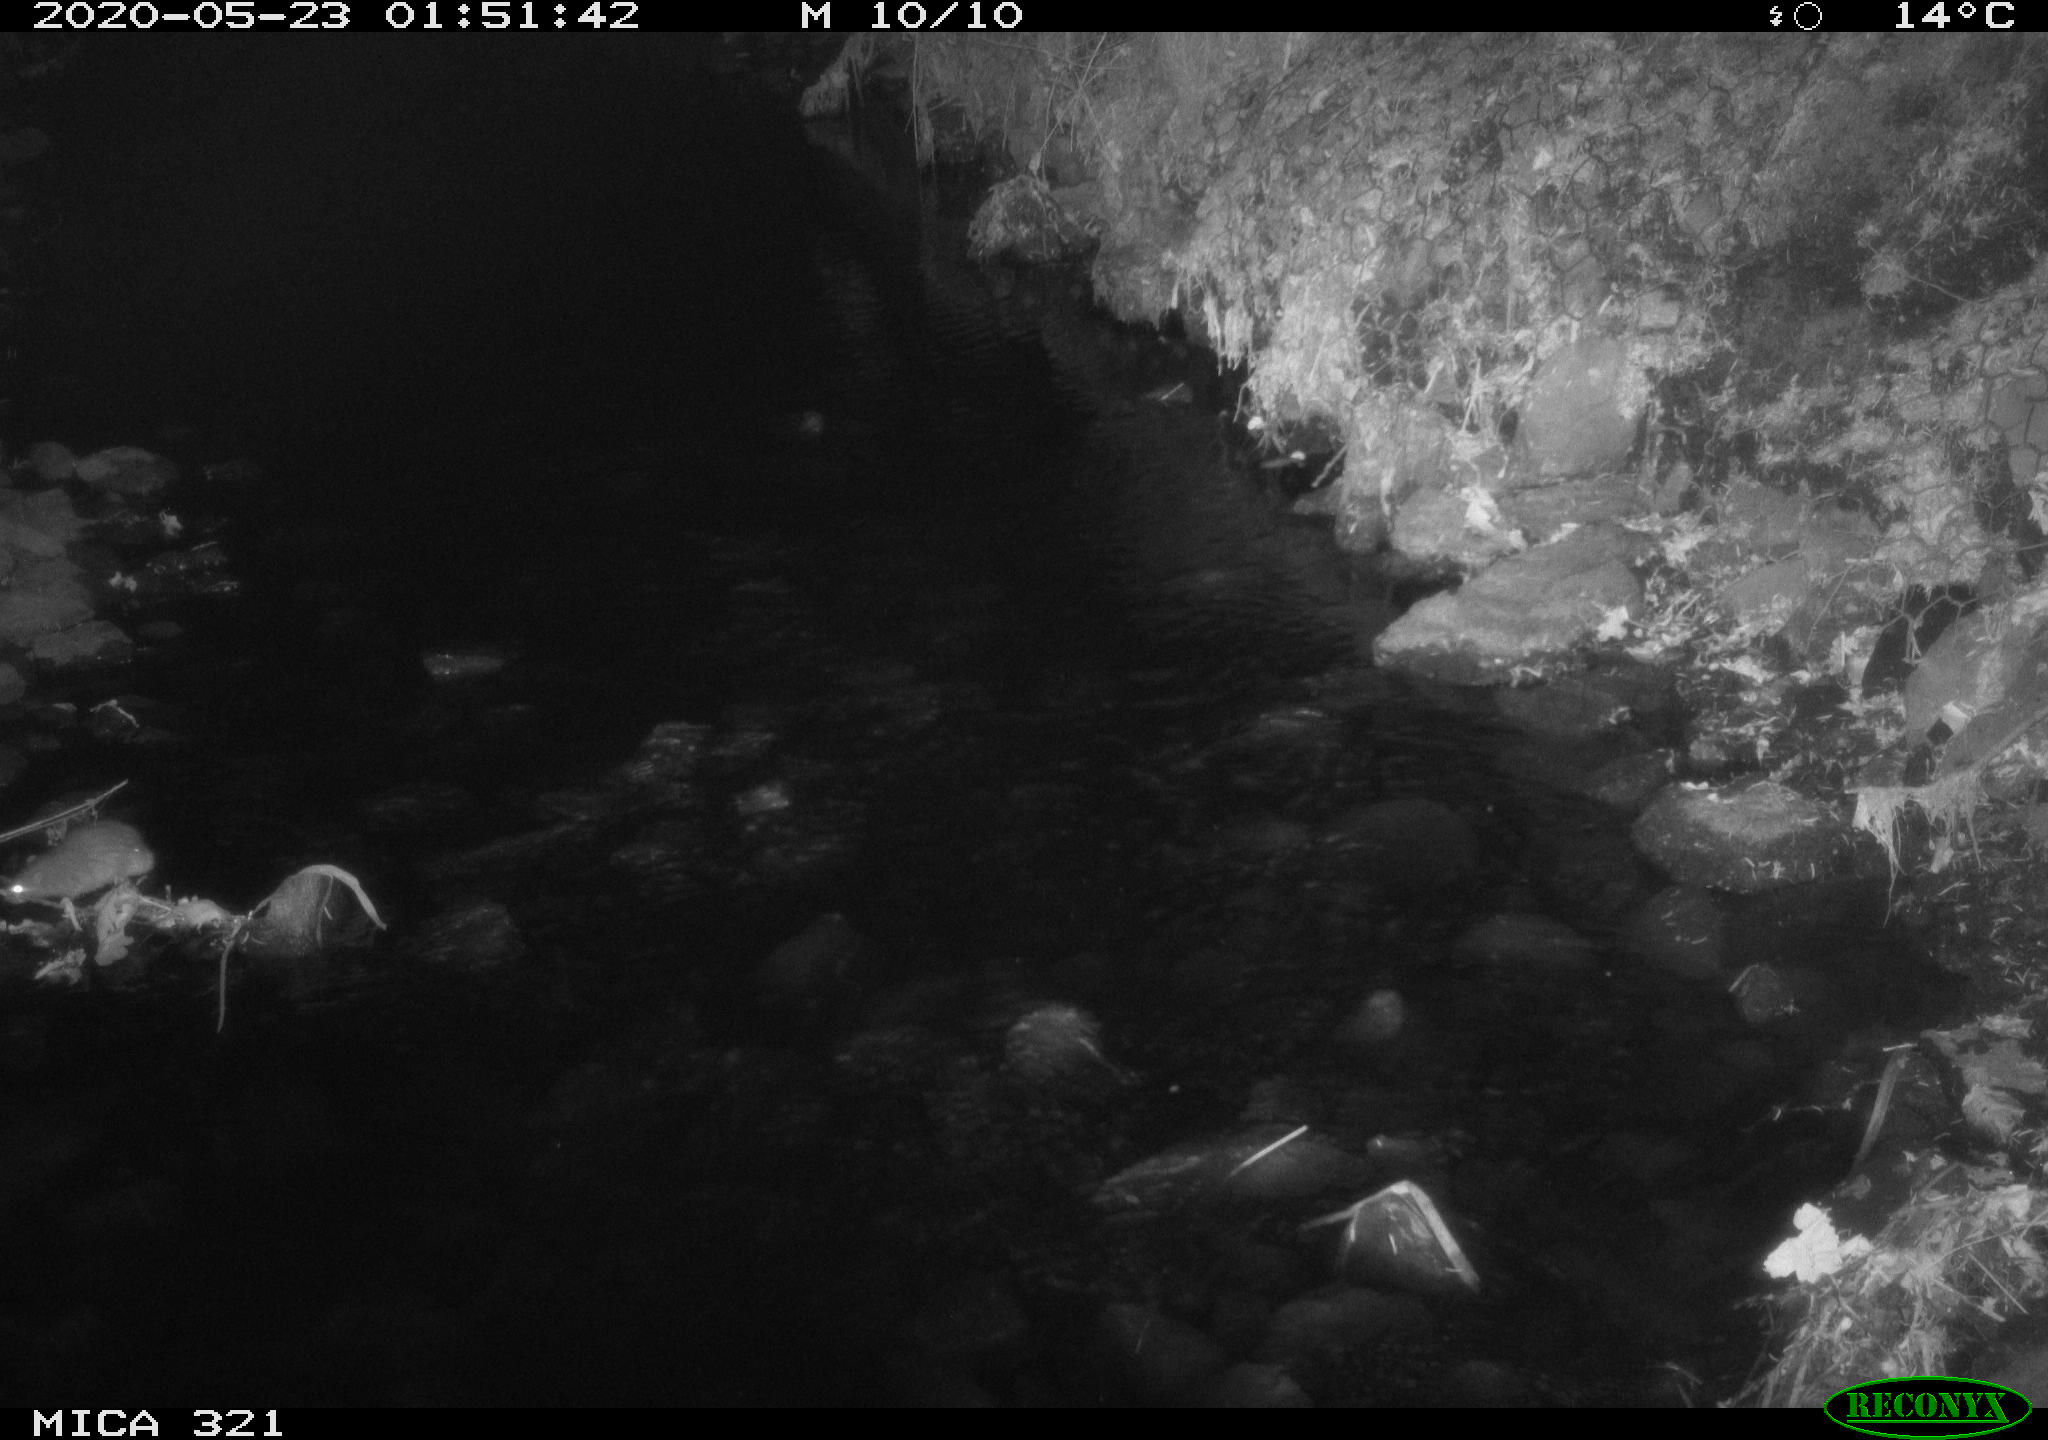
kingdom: Animalia
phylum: Chordata
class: Mammalia
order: Rodentia
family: Muridae
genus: Rattus
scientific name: Rattus norvegicus
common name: Brown rat
